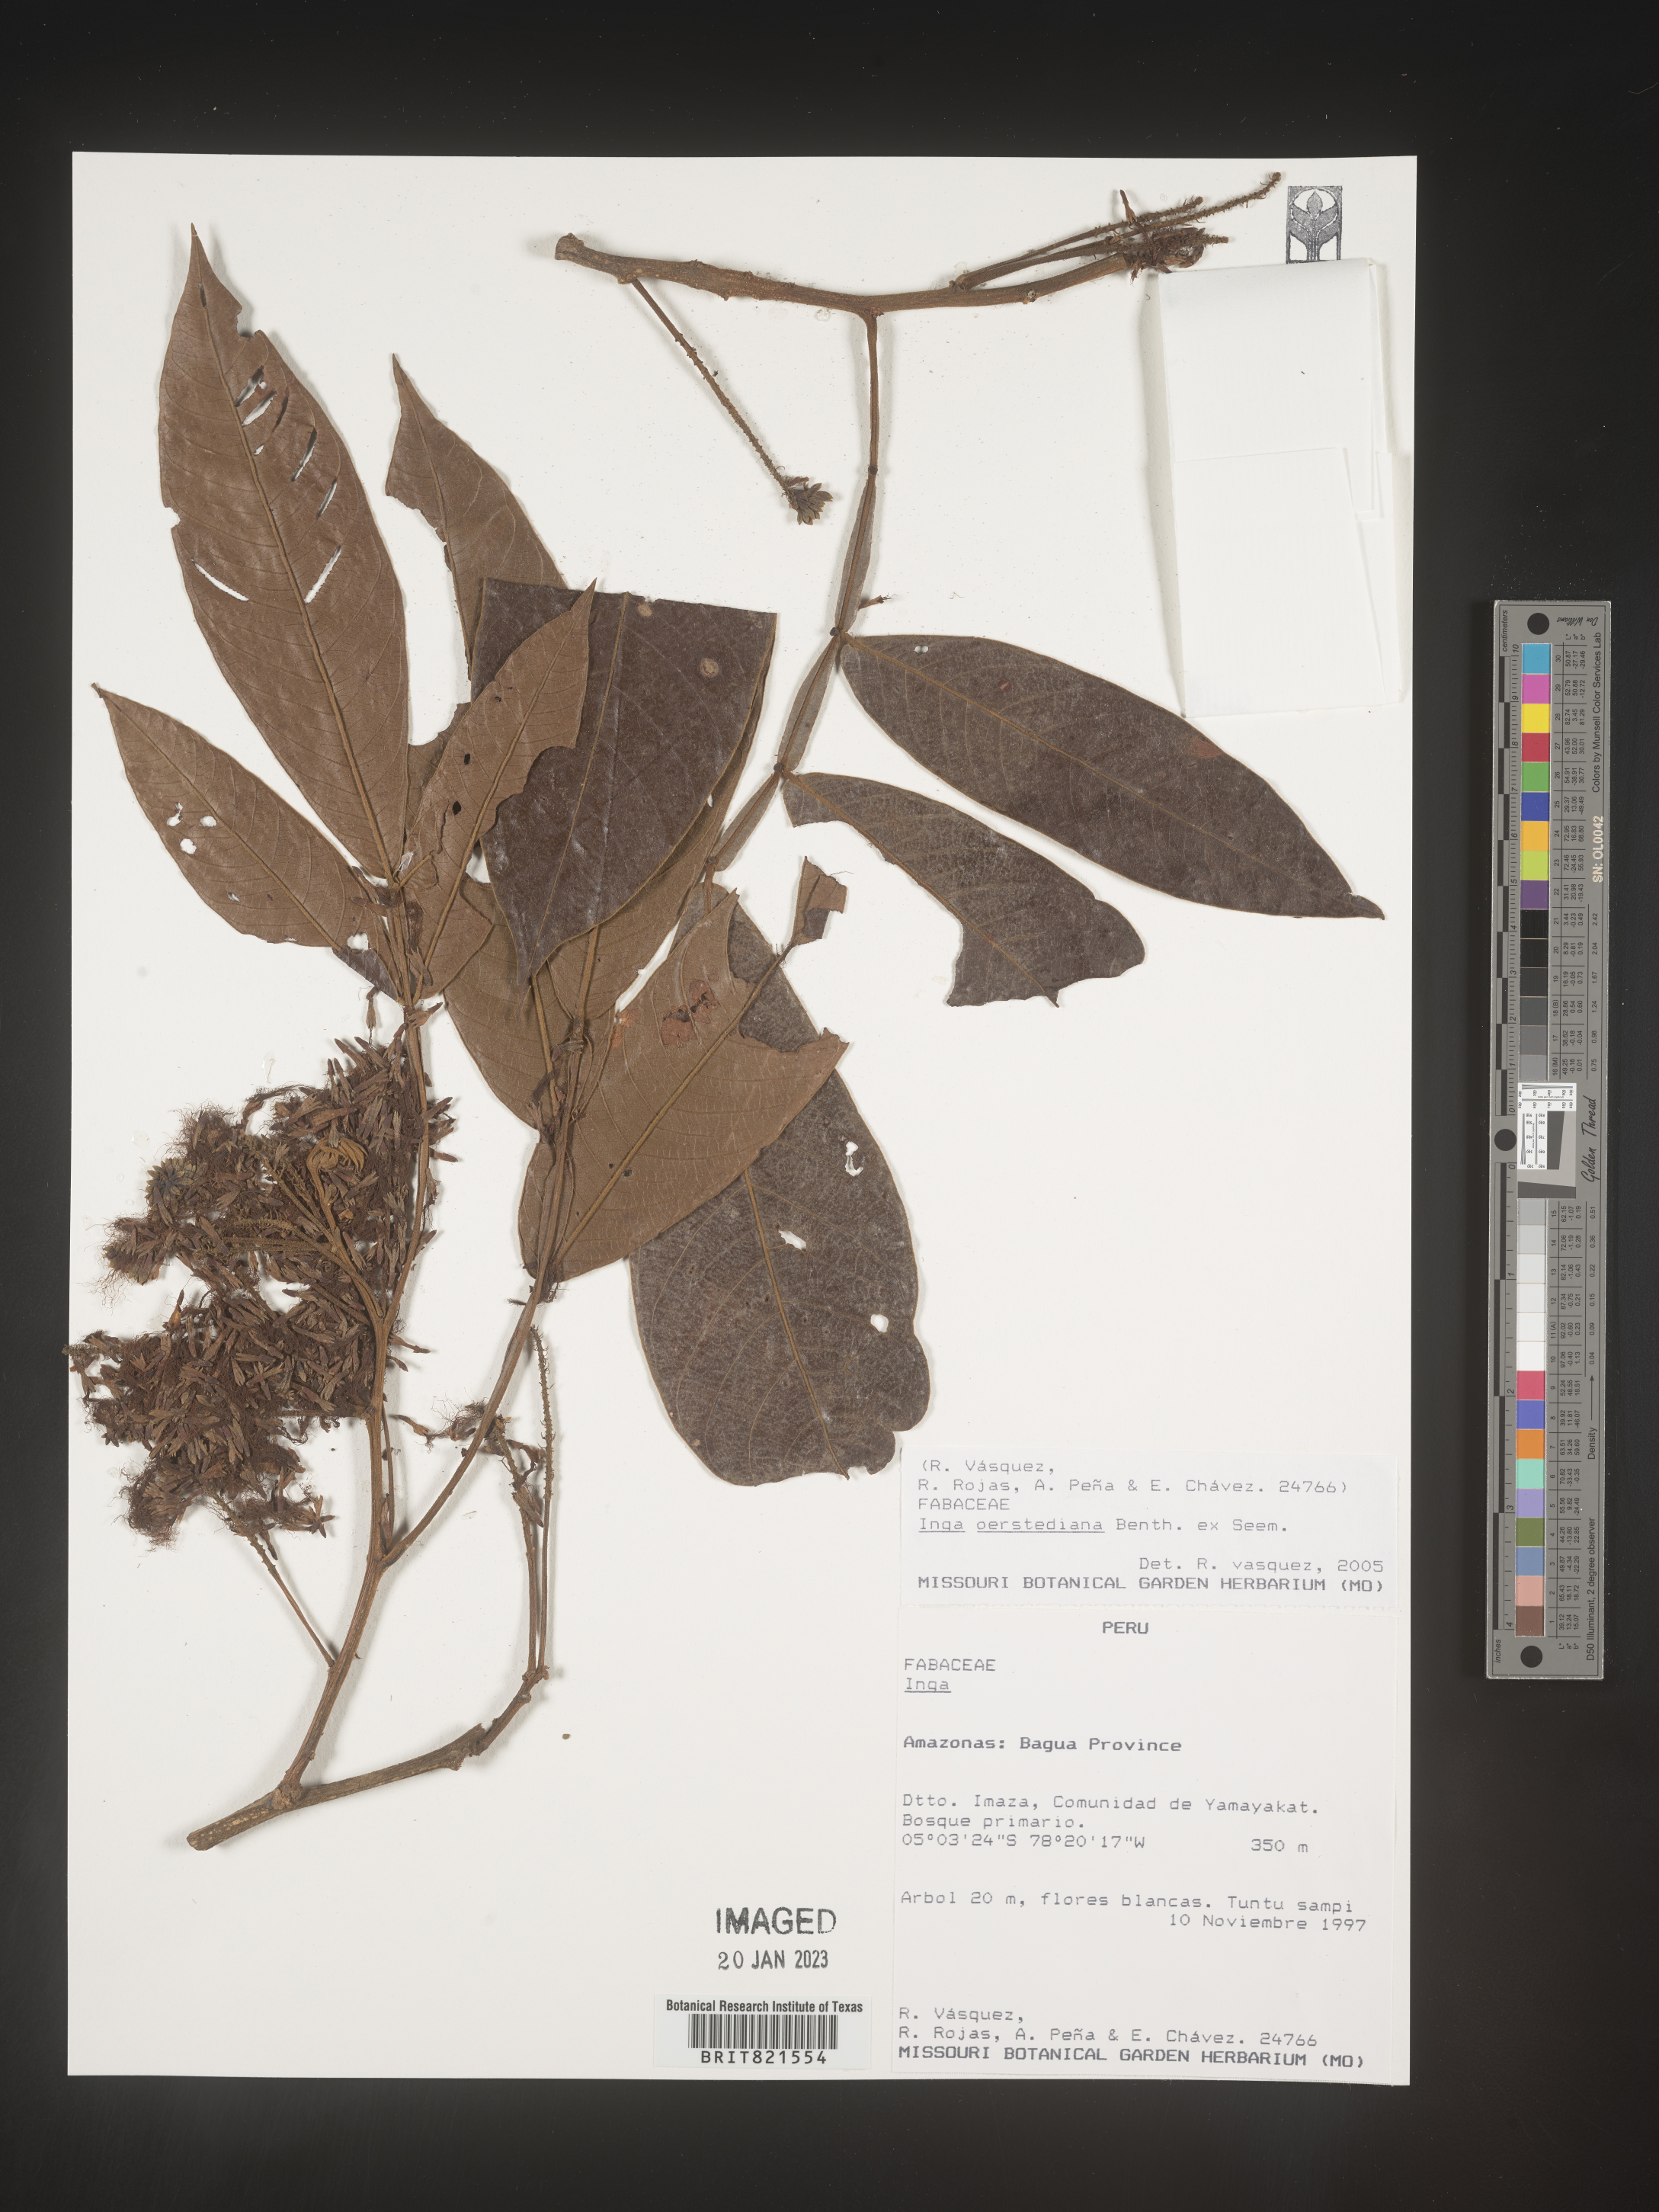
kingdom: Plantae
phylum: Tracheophyta
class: Magnoliopsida
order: Fabales
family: Fabaceae
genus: Inga
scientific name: Inga
